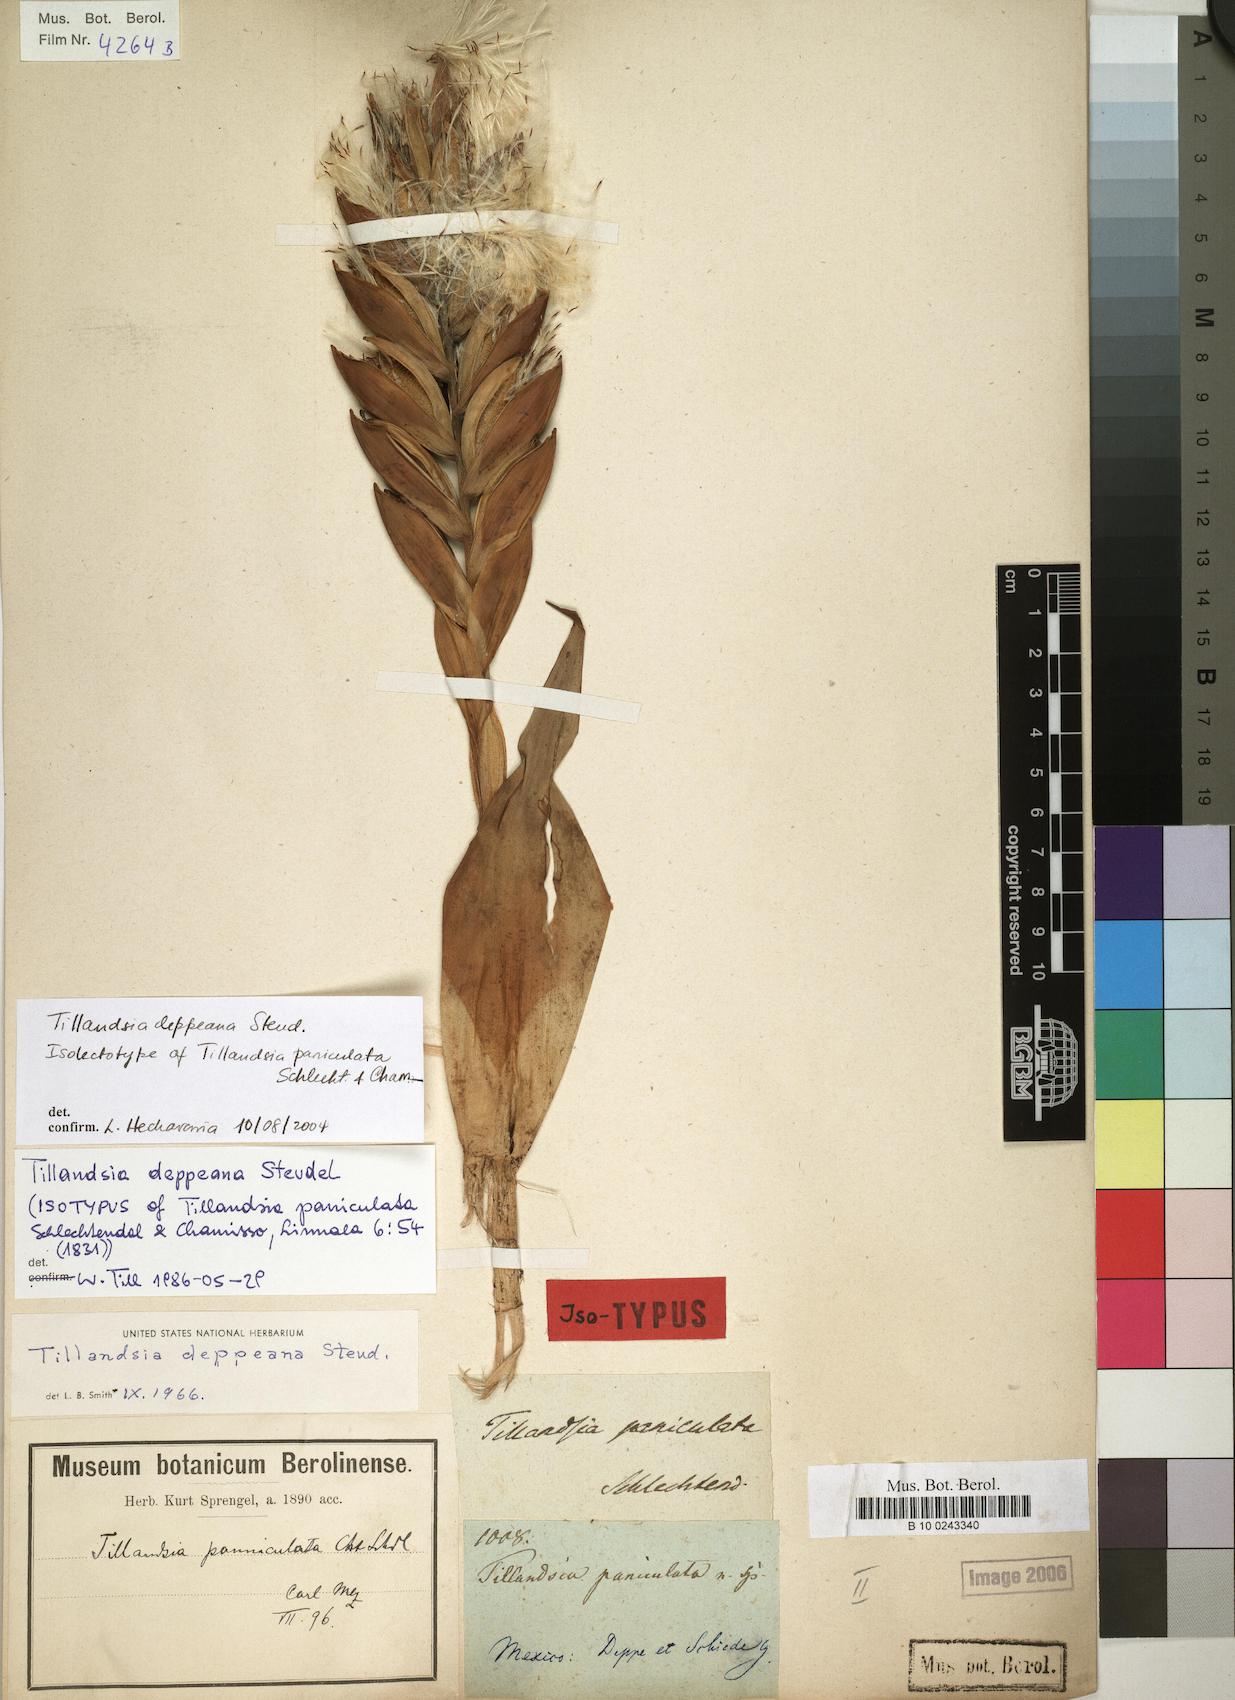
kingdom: Plantae
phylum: Tracheophyta
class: Liliopsida
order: Poales
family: Bromeliaceae
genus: Tillandsia
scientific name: Tillandsia deppeana
